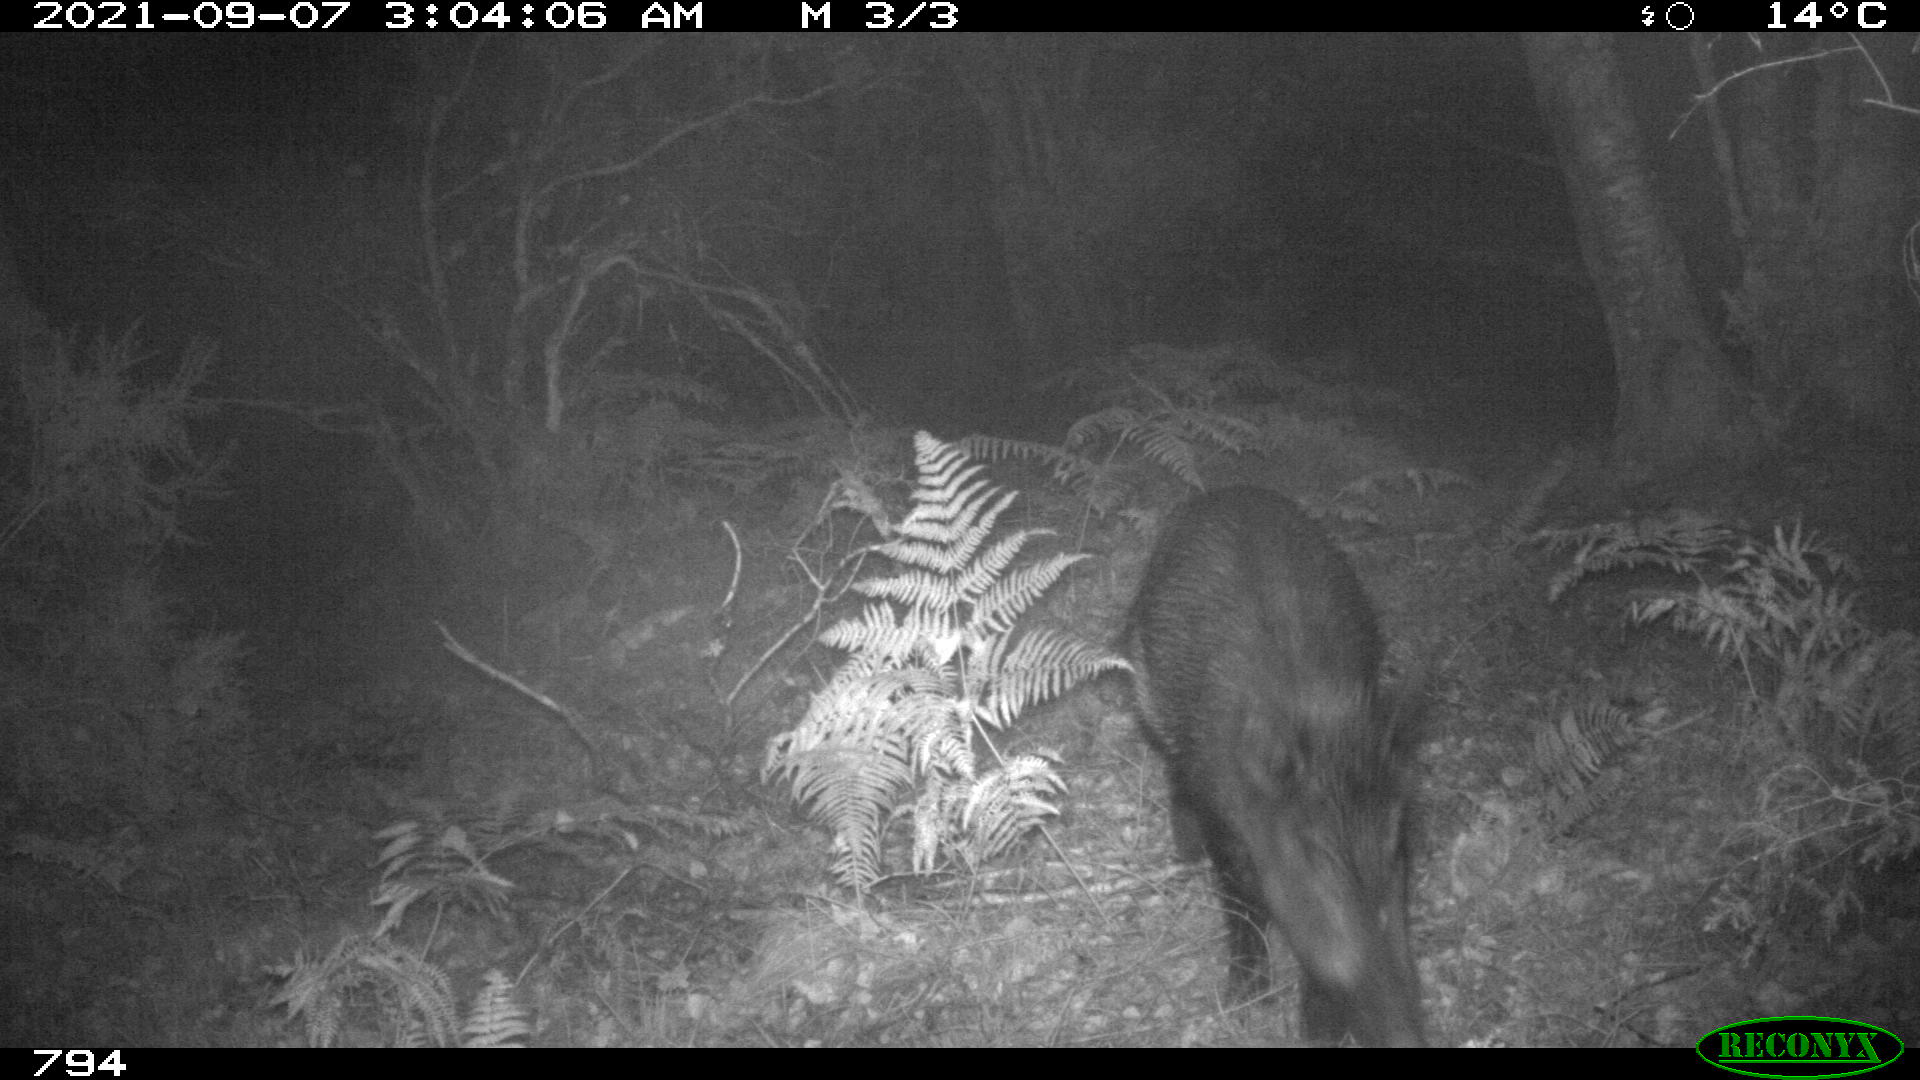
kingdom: Animalia
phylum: Chordata
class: Mammalia
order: Artiodactyla
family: Suidae
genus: Sus
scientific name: Sus scrofa
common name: Wild boar
